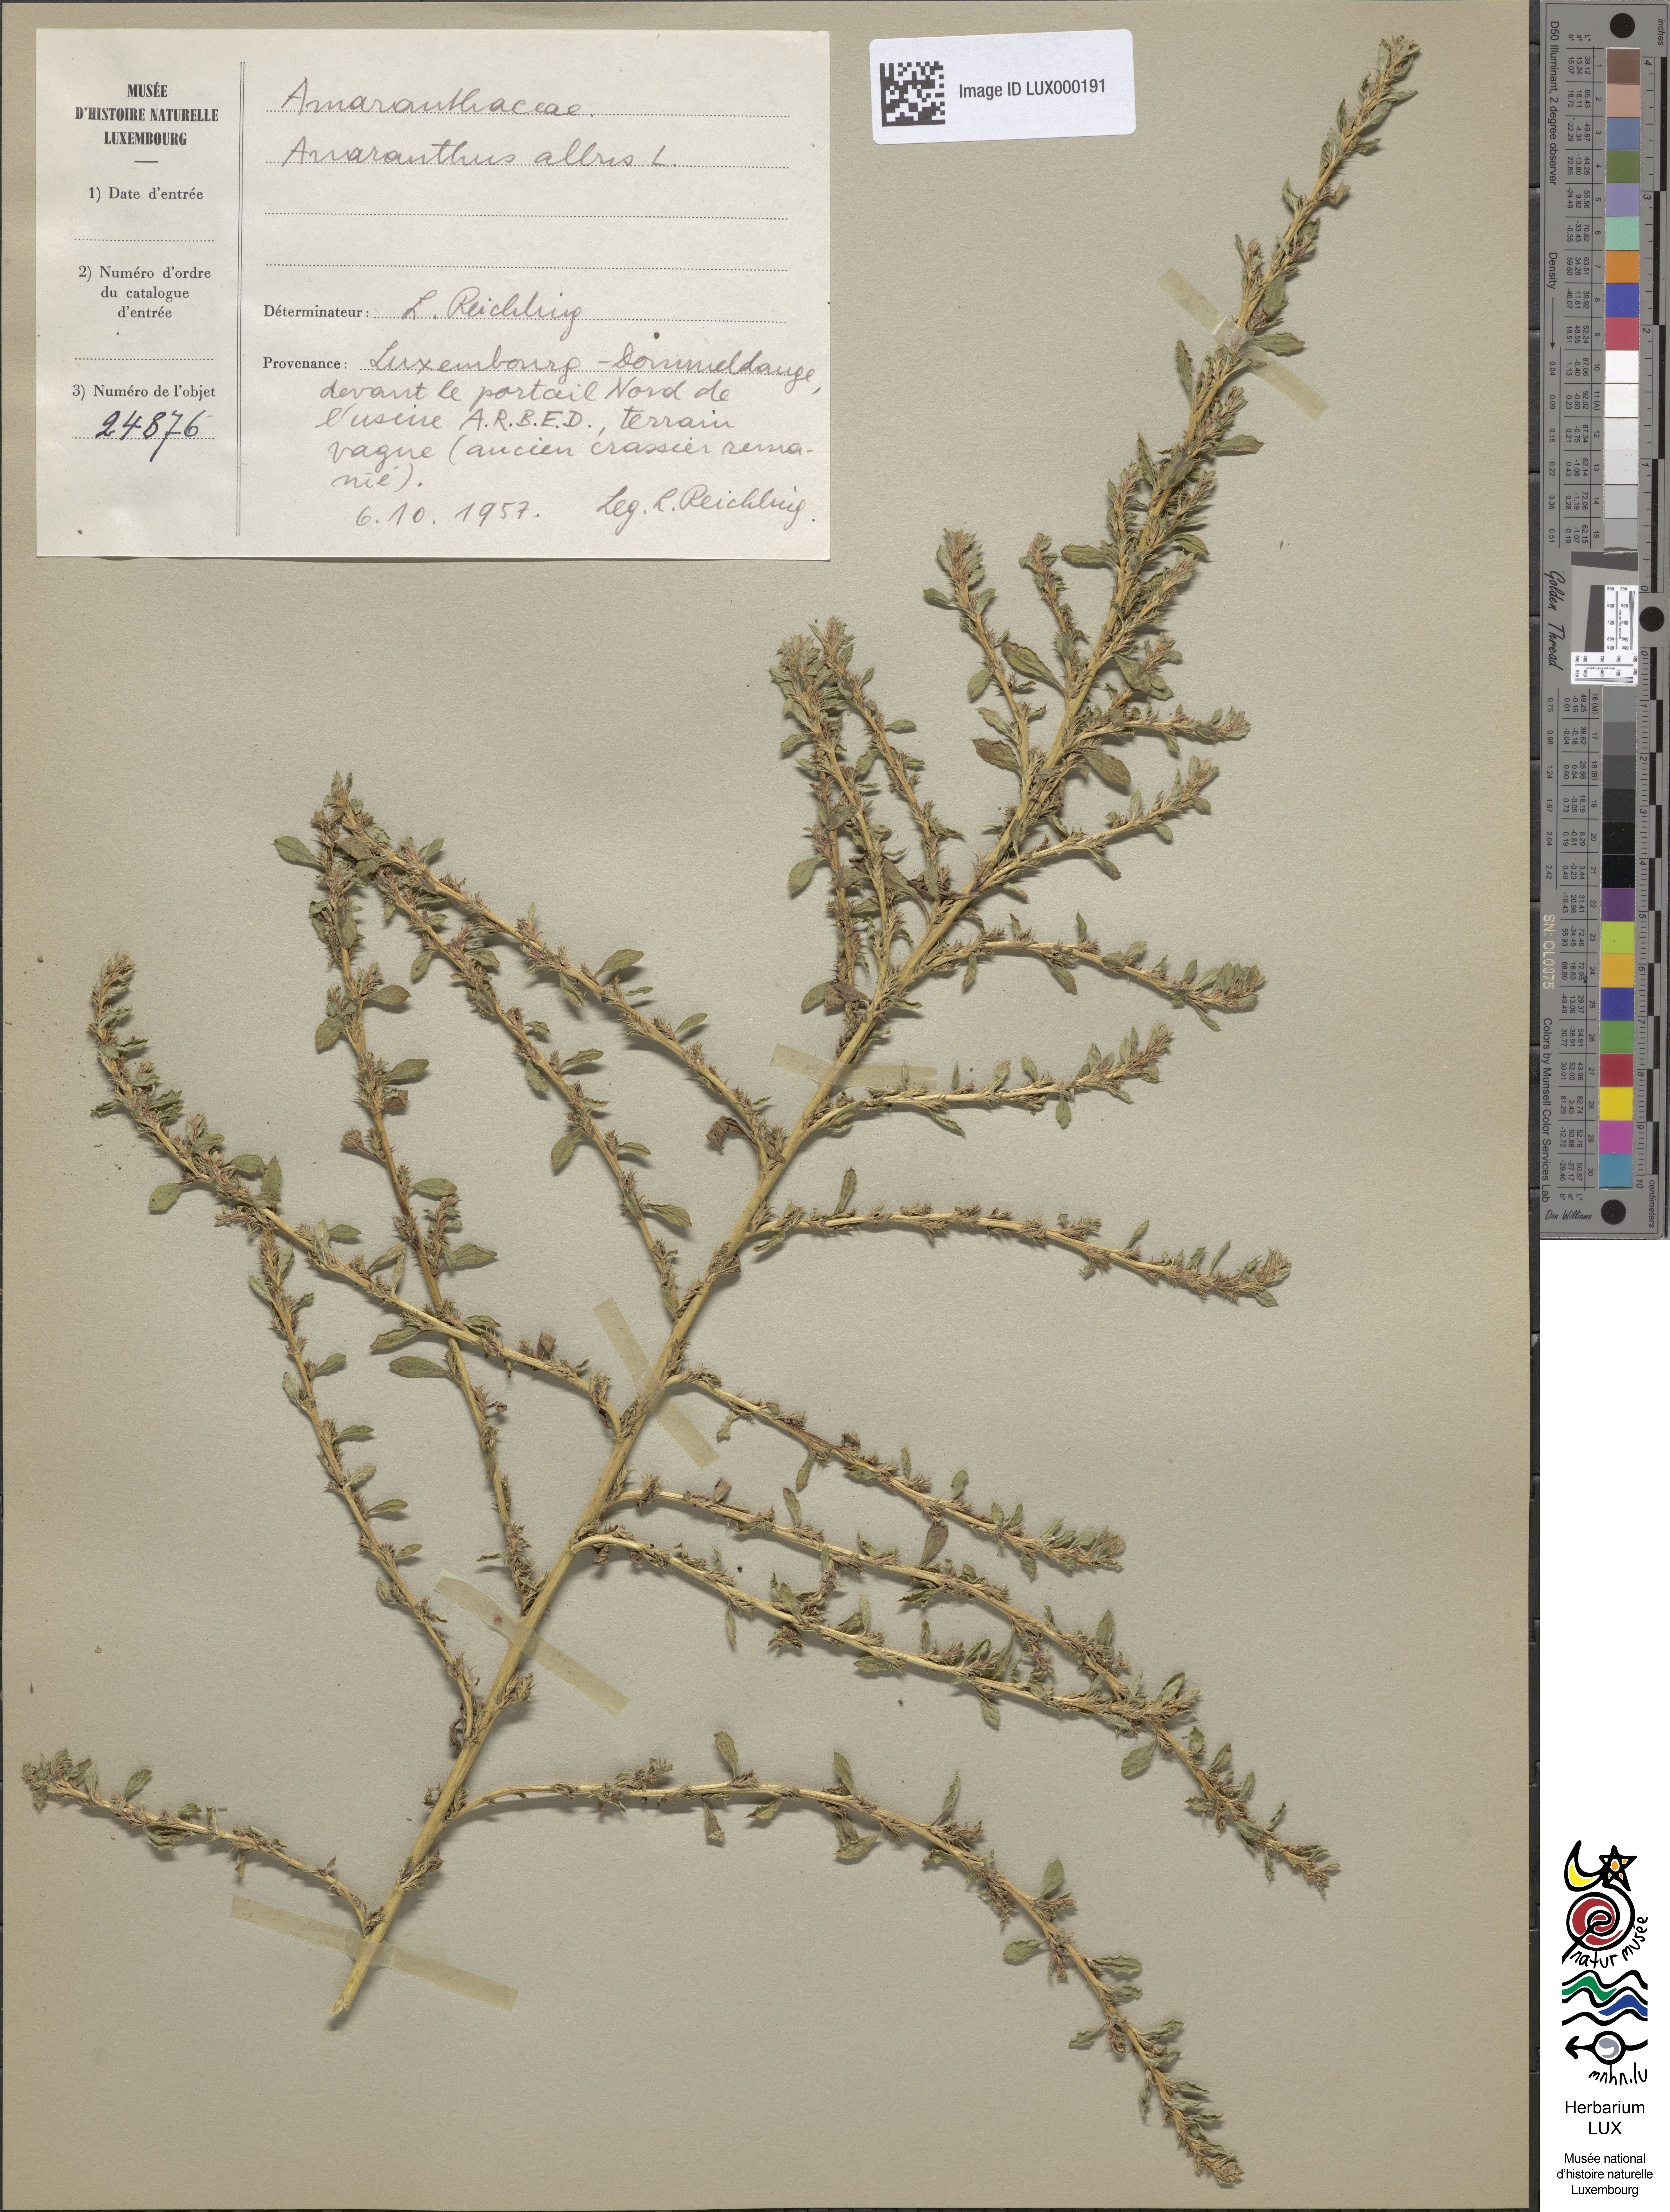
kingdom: Plantae
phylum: Tracheophyta
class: Magnoliopsida
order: Caryophyllales
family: Amaranthaceae
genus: Amaranthus
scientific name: Amaranthus albus
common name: White pigweed
